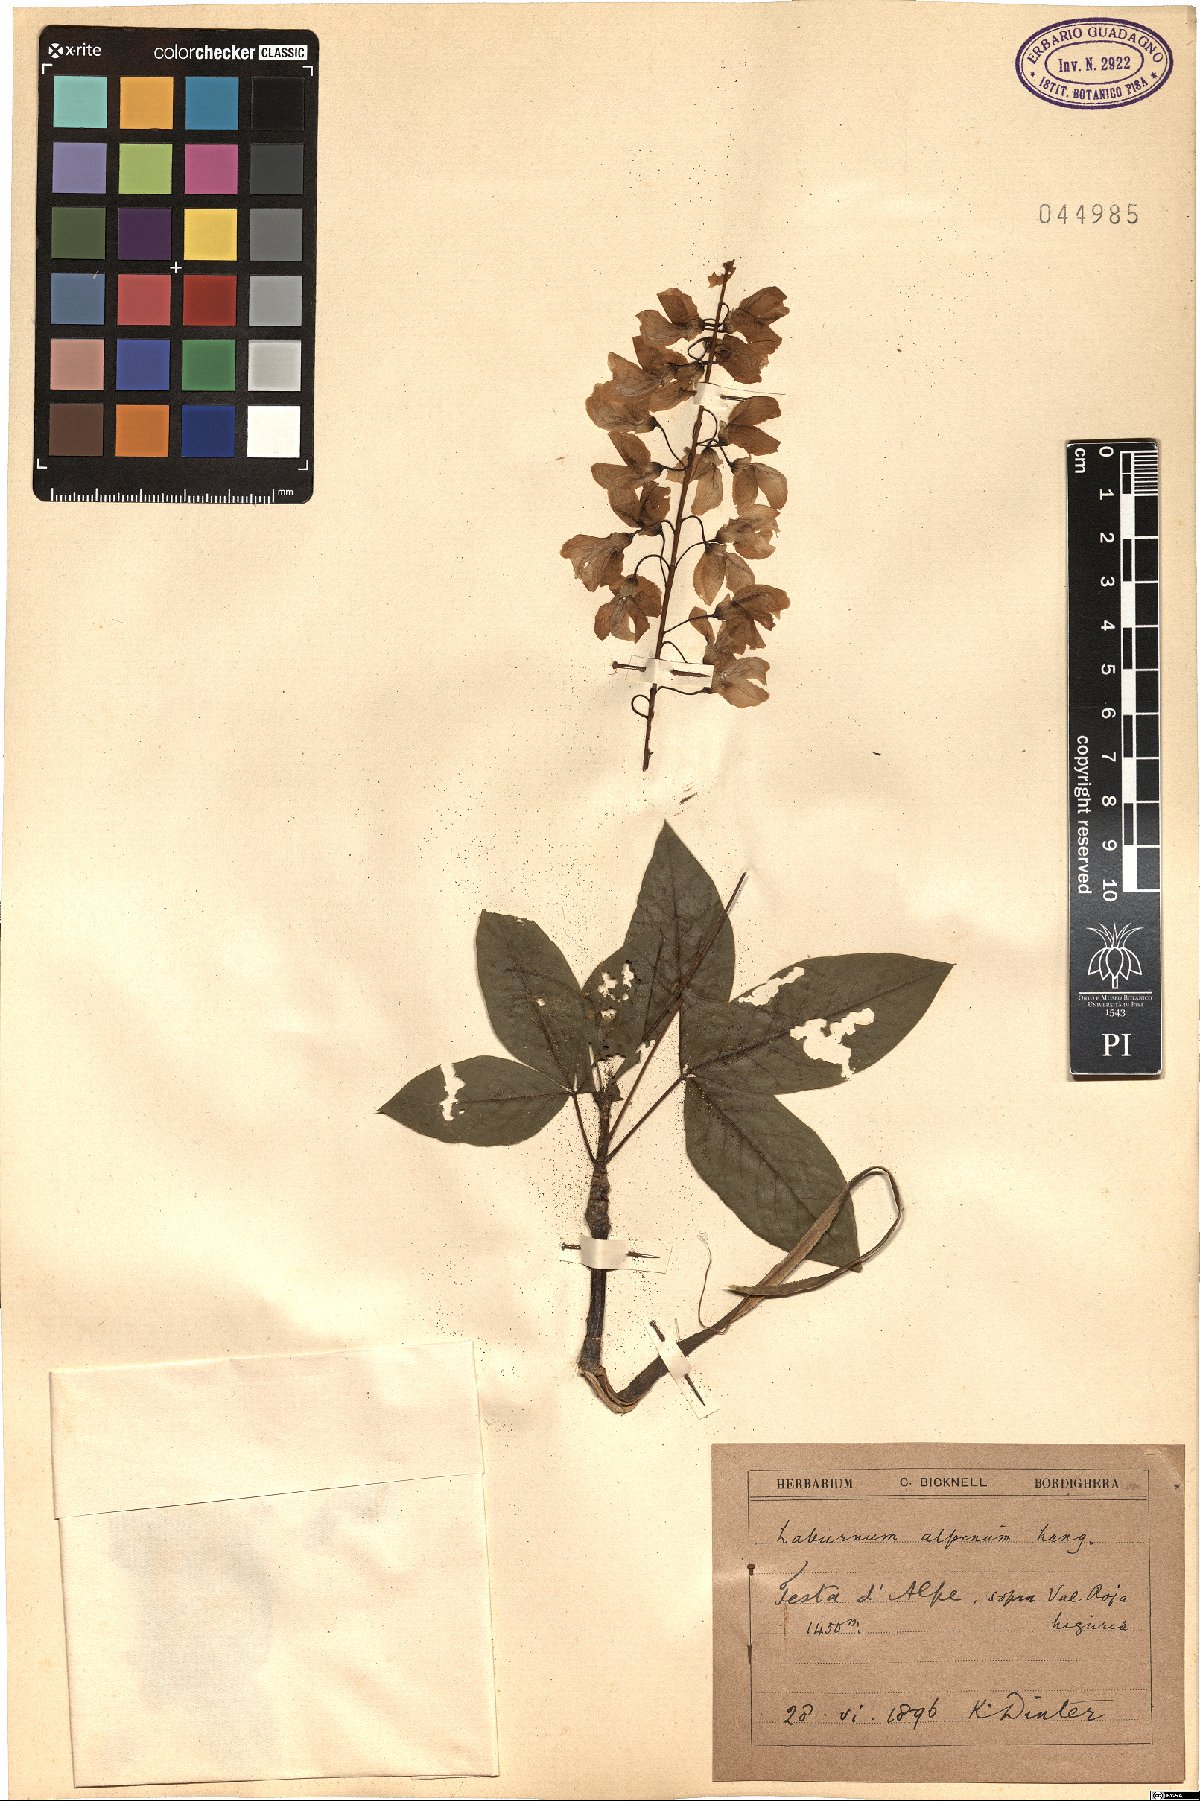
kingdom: Plantae
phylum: Tracheophyta
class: Magnoliopsida
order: Fabales
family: Fabaceae
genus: Laburnum
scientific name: Laburnum alpinum
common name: Scottish laburnum
